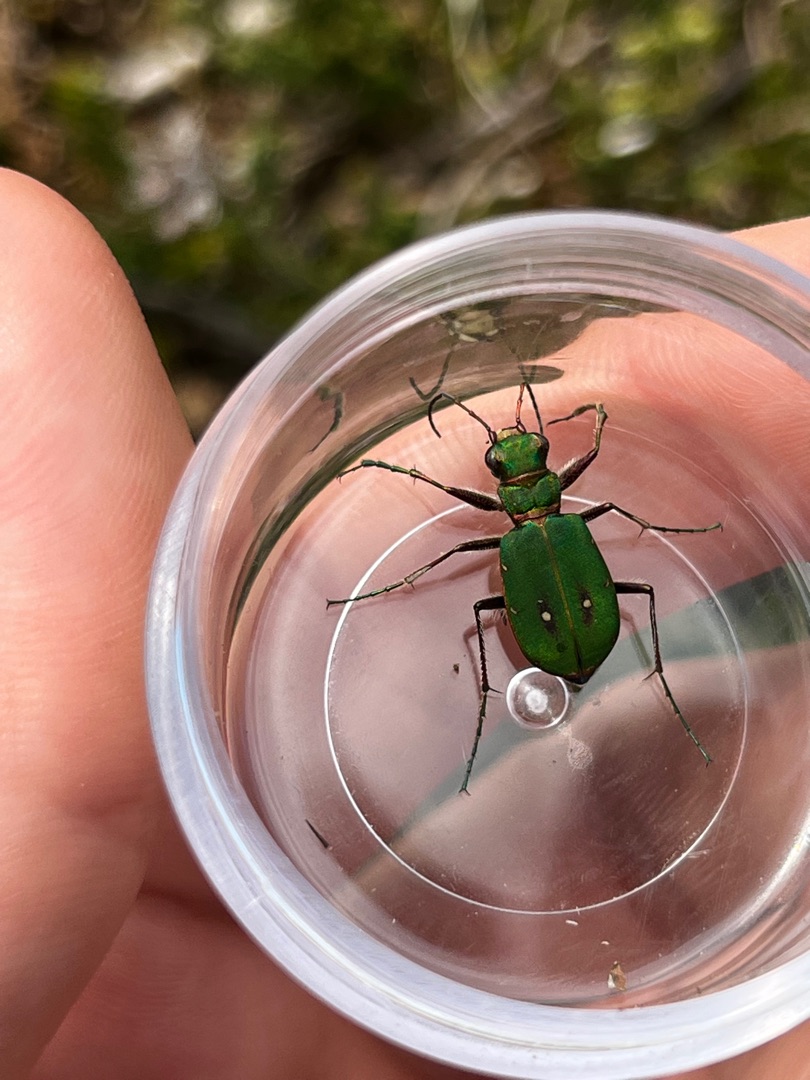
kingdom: Animalia
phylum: Arthropoda
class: Insecta
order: Coleoptera
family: Carabidae
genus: Cicindela
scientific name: Cicindela campestris
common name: Grøn sandspringer
